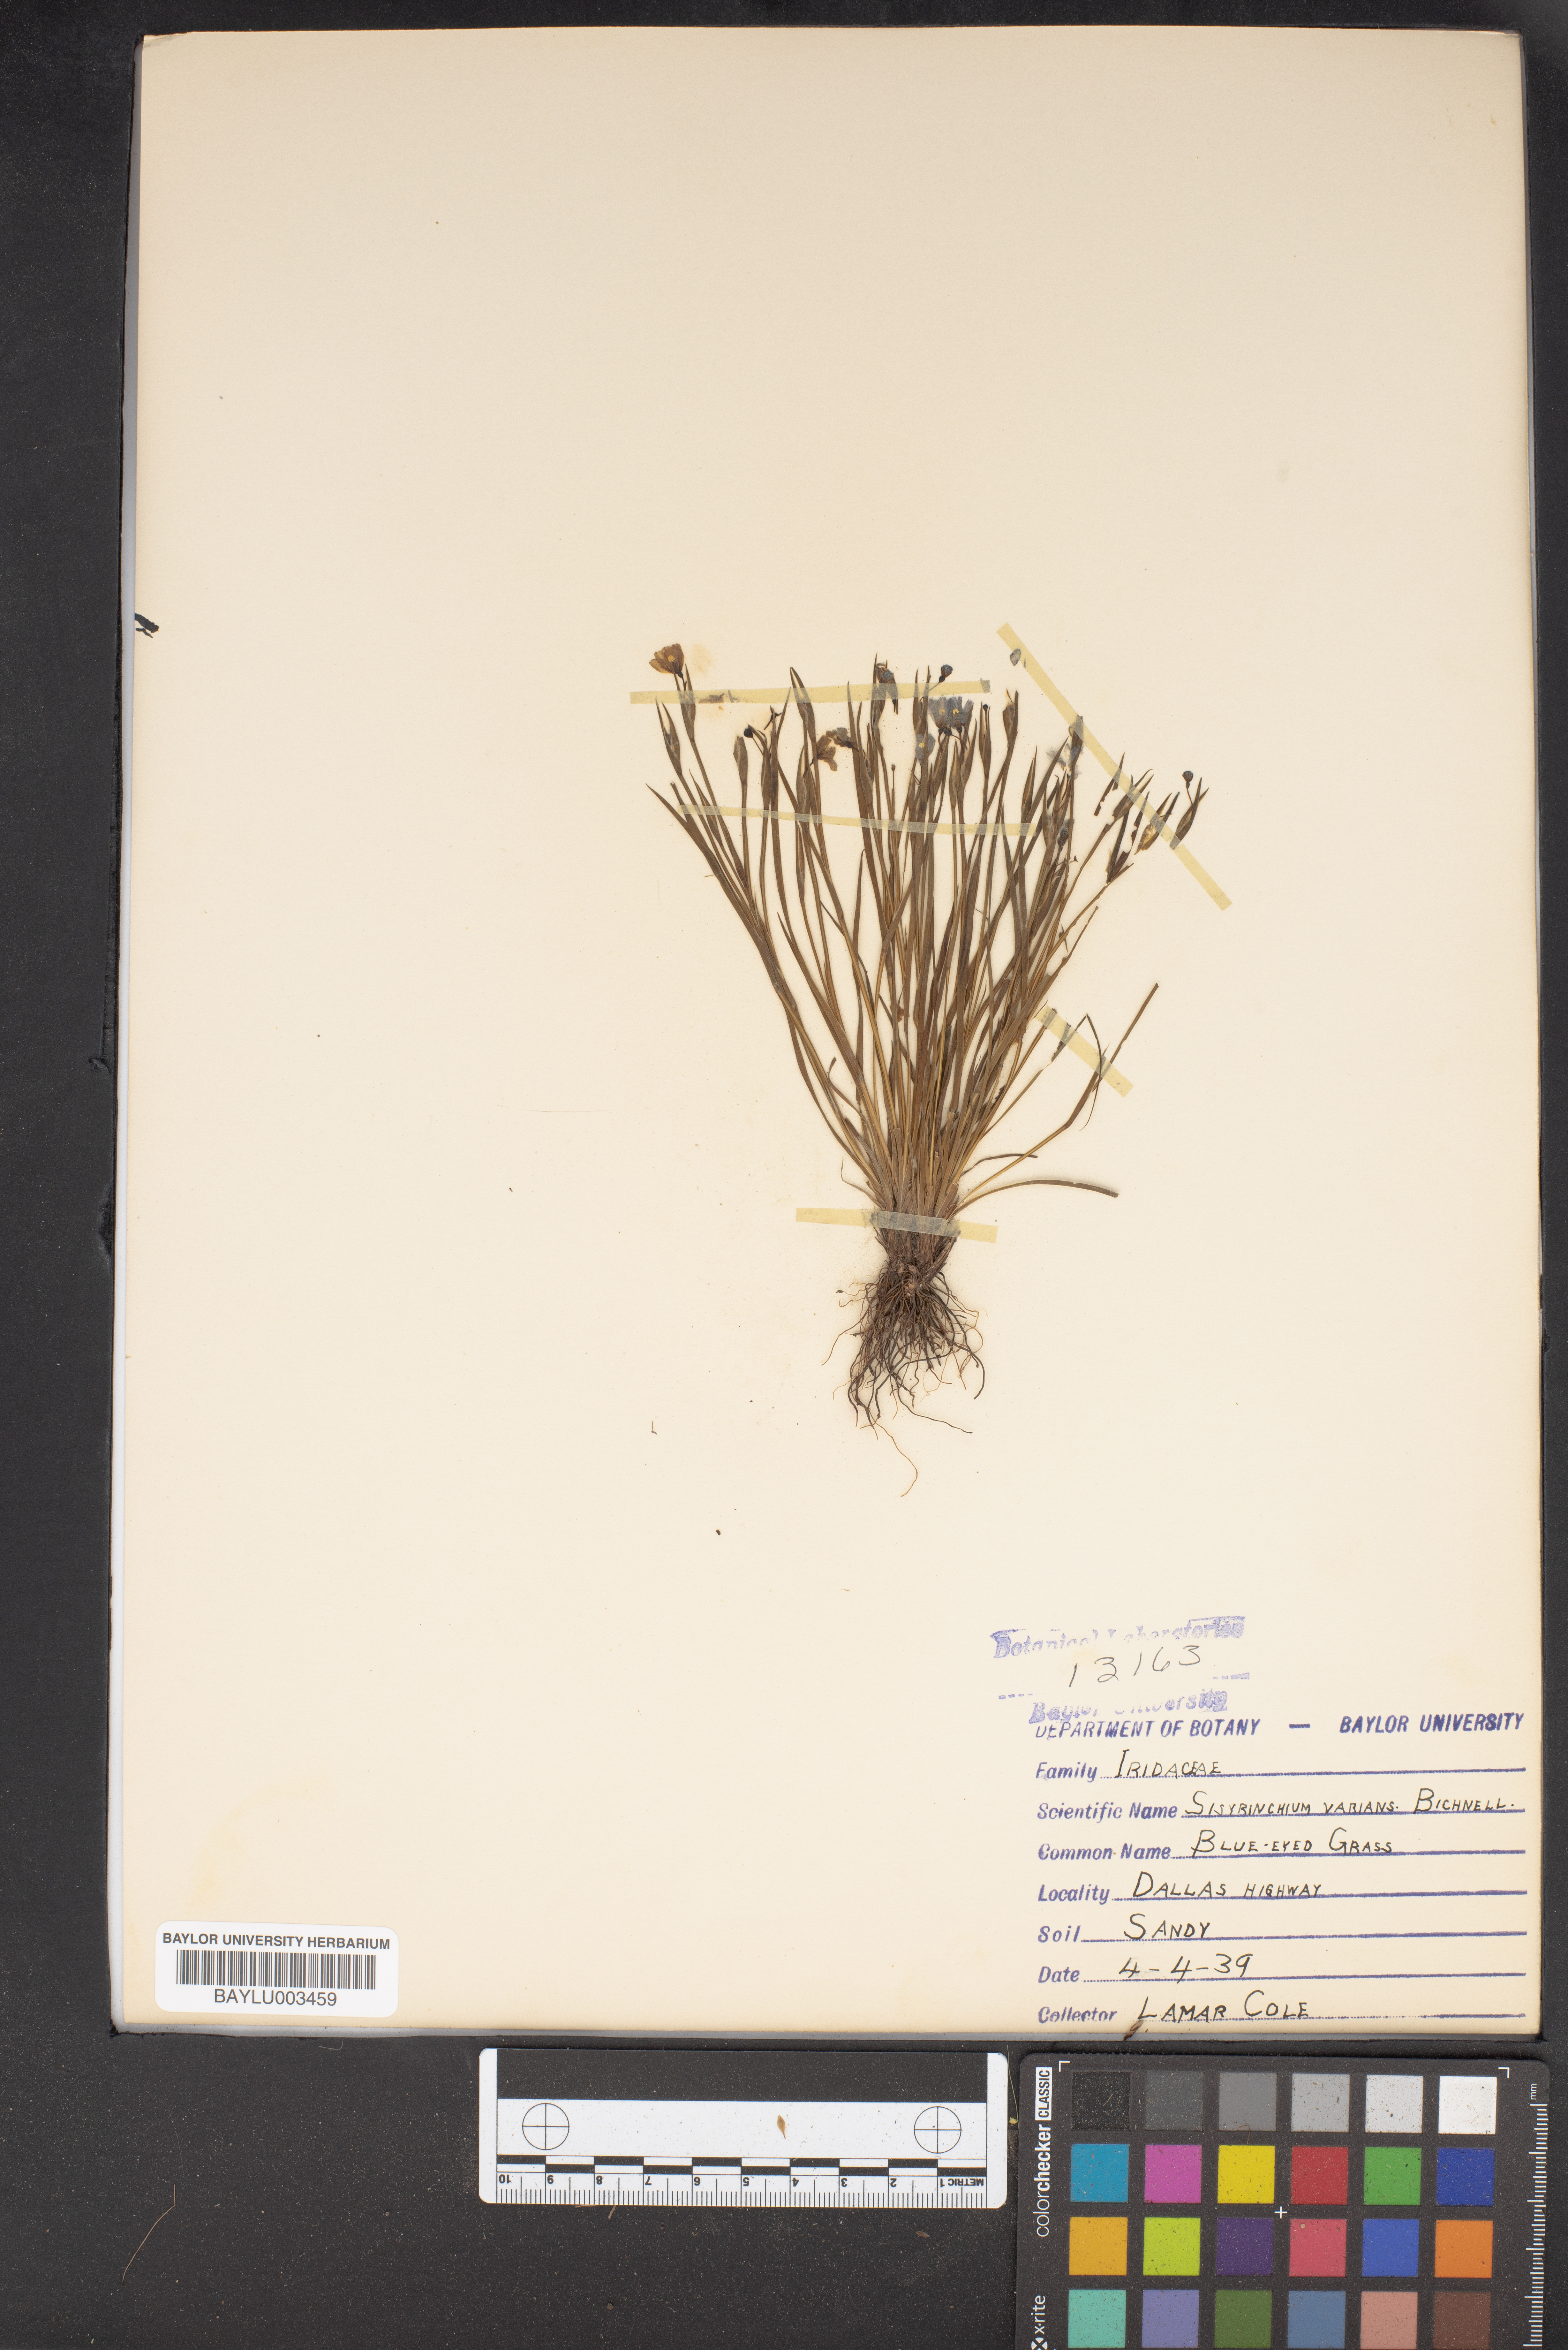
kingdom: Plantae
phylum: Tracheophyta
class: Liliopsida
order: Asparagales
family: Iridaceae
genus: Sisyrinchium
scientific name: Sisyrinchium pruinosum
